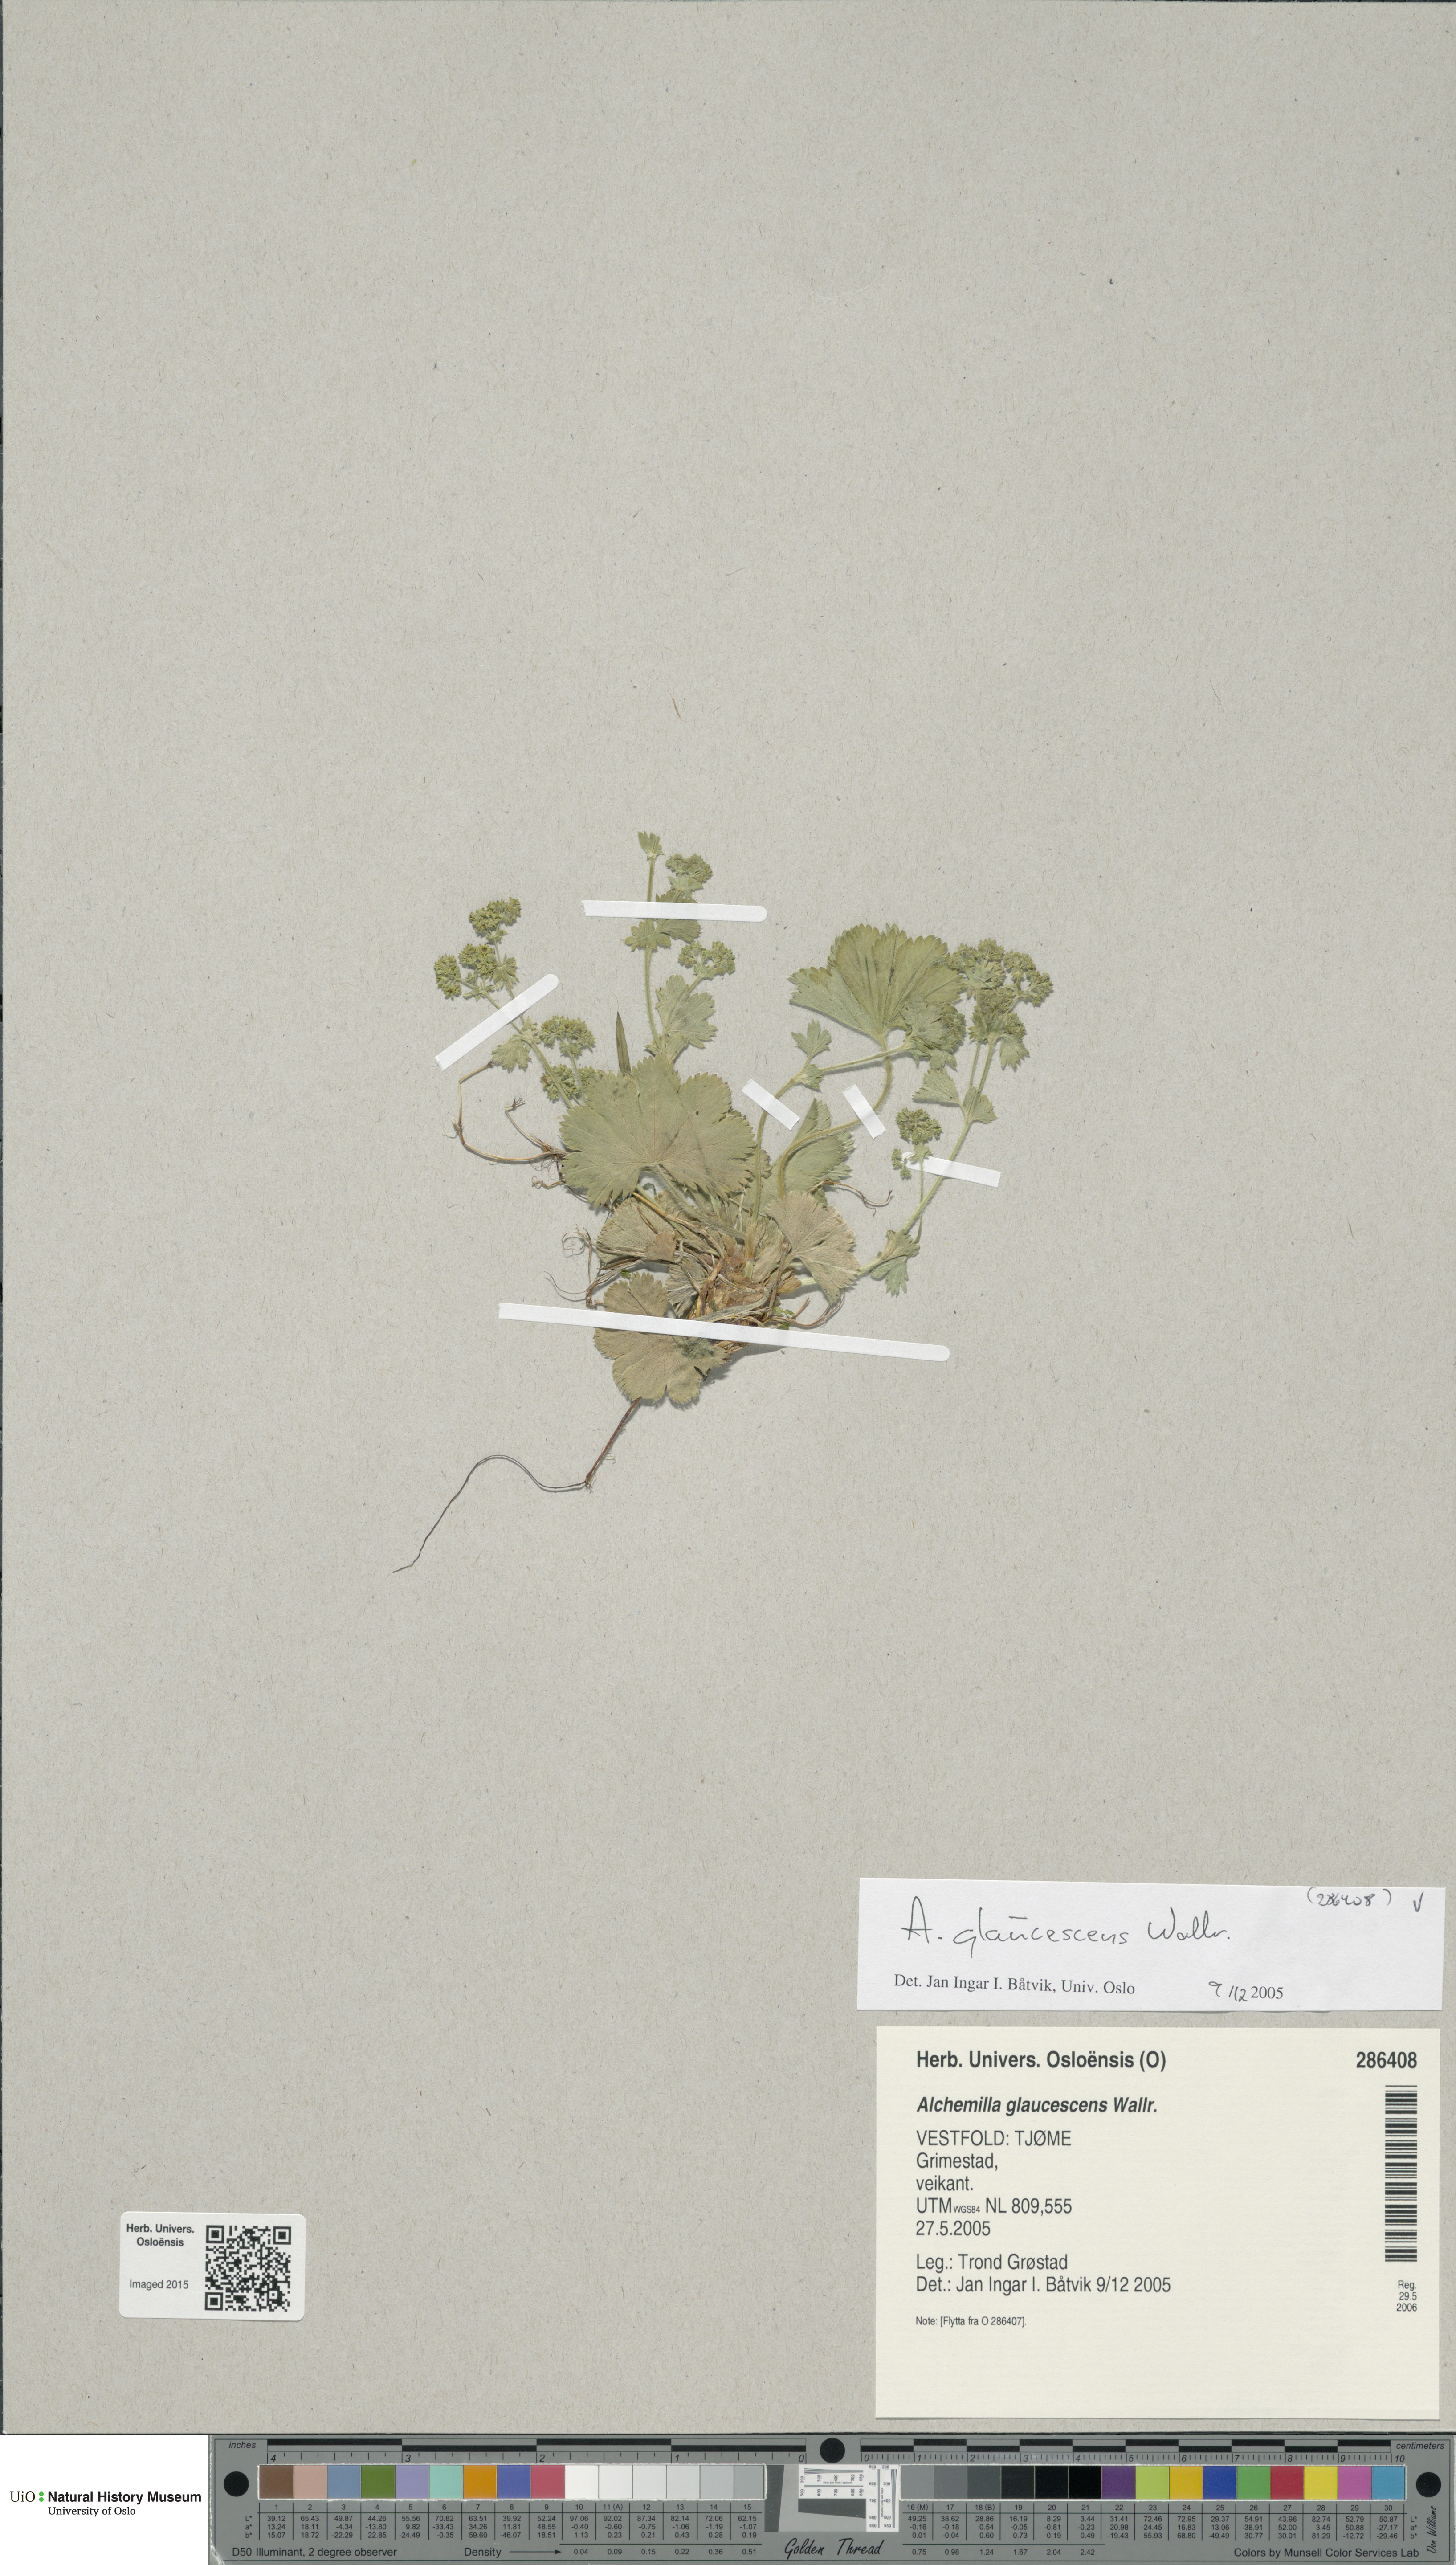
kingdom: Plantae
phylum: Tracheophyta
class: Magnoliopsida
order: Rosales
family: Rosaceae
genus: Alchemilla
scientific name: Alchemilla glaucescens
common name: Silky lady's mantle
